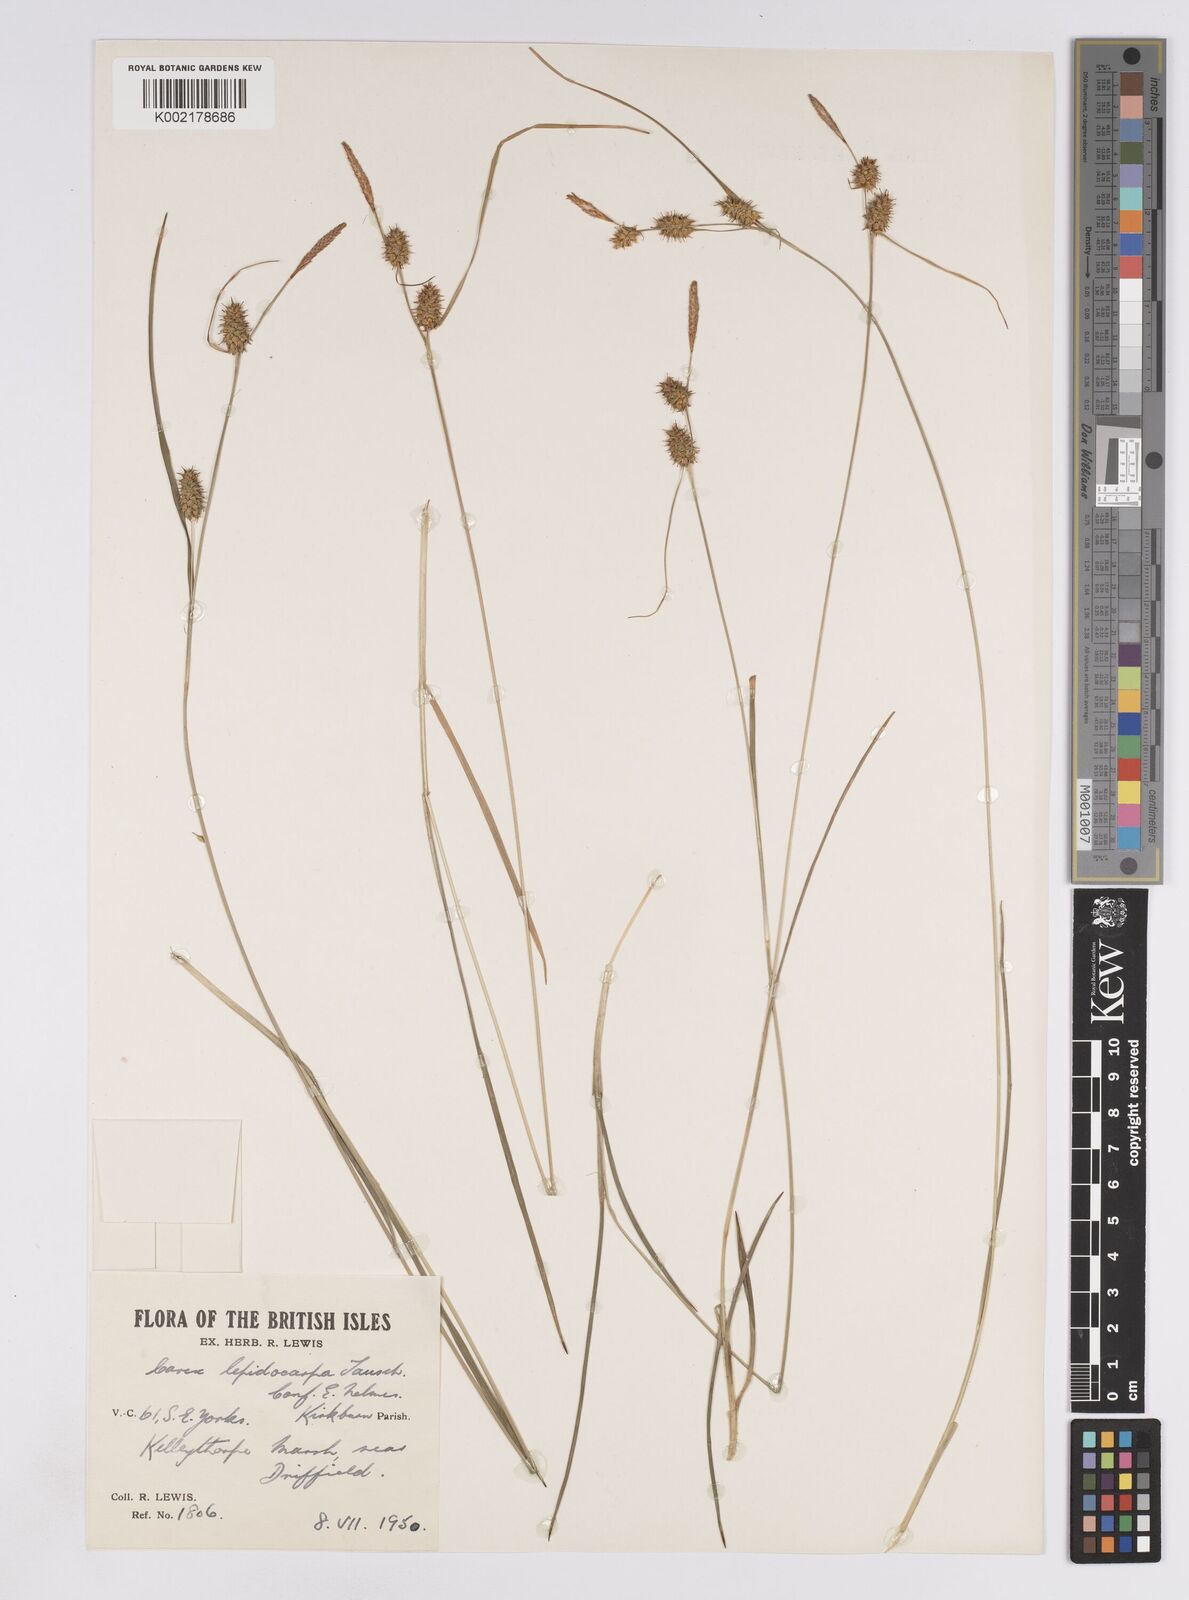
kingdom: Plantae
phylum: Tracheophyta
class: Liliopsida
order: Poales
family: Cyperaceae
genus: Carex
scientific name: Carex lepidocarpa
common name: Long-stalked yellow-sedge
